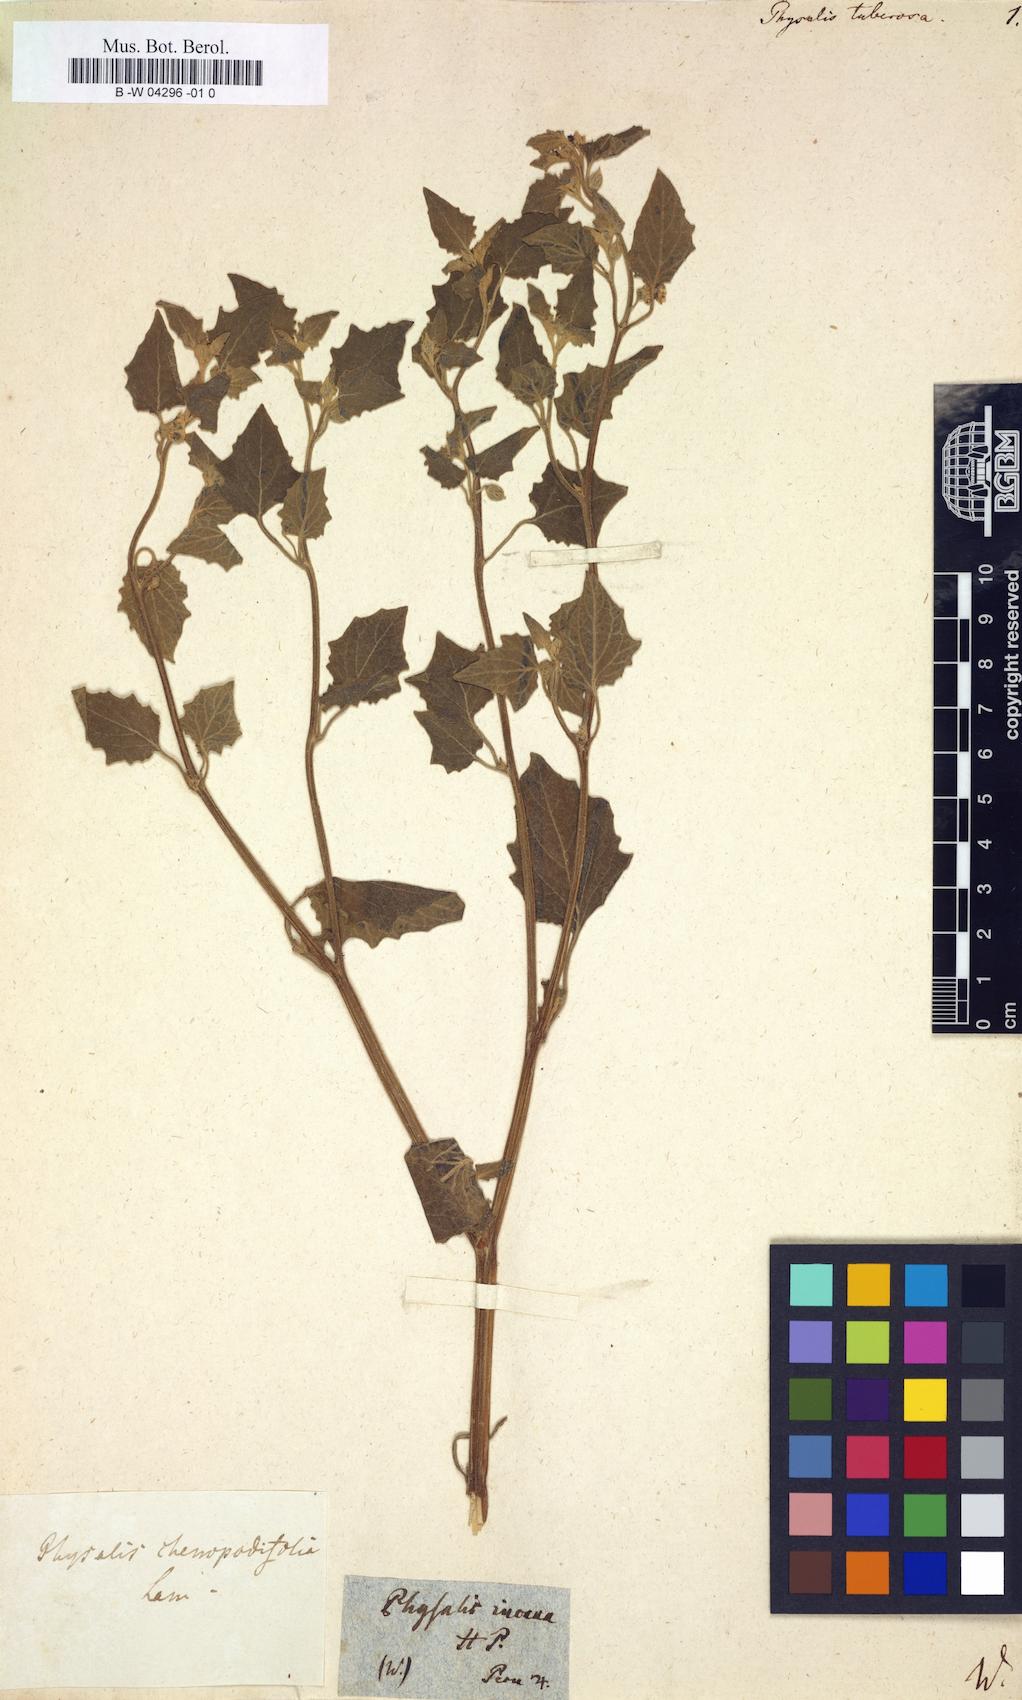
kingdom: Plantae
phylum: Tracheophyta
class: Magnoliopsida
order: Solanales
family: Solanaceae
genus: Physalis
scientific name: Physalis peruviana
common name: Cape-gooseberry
